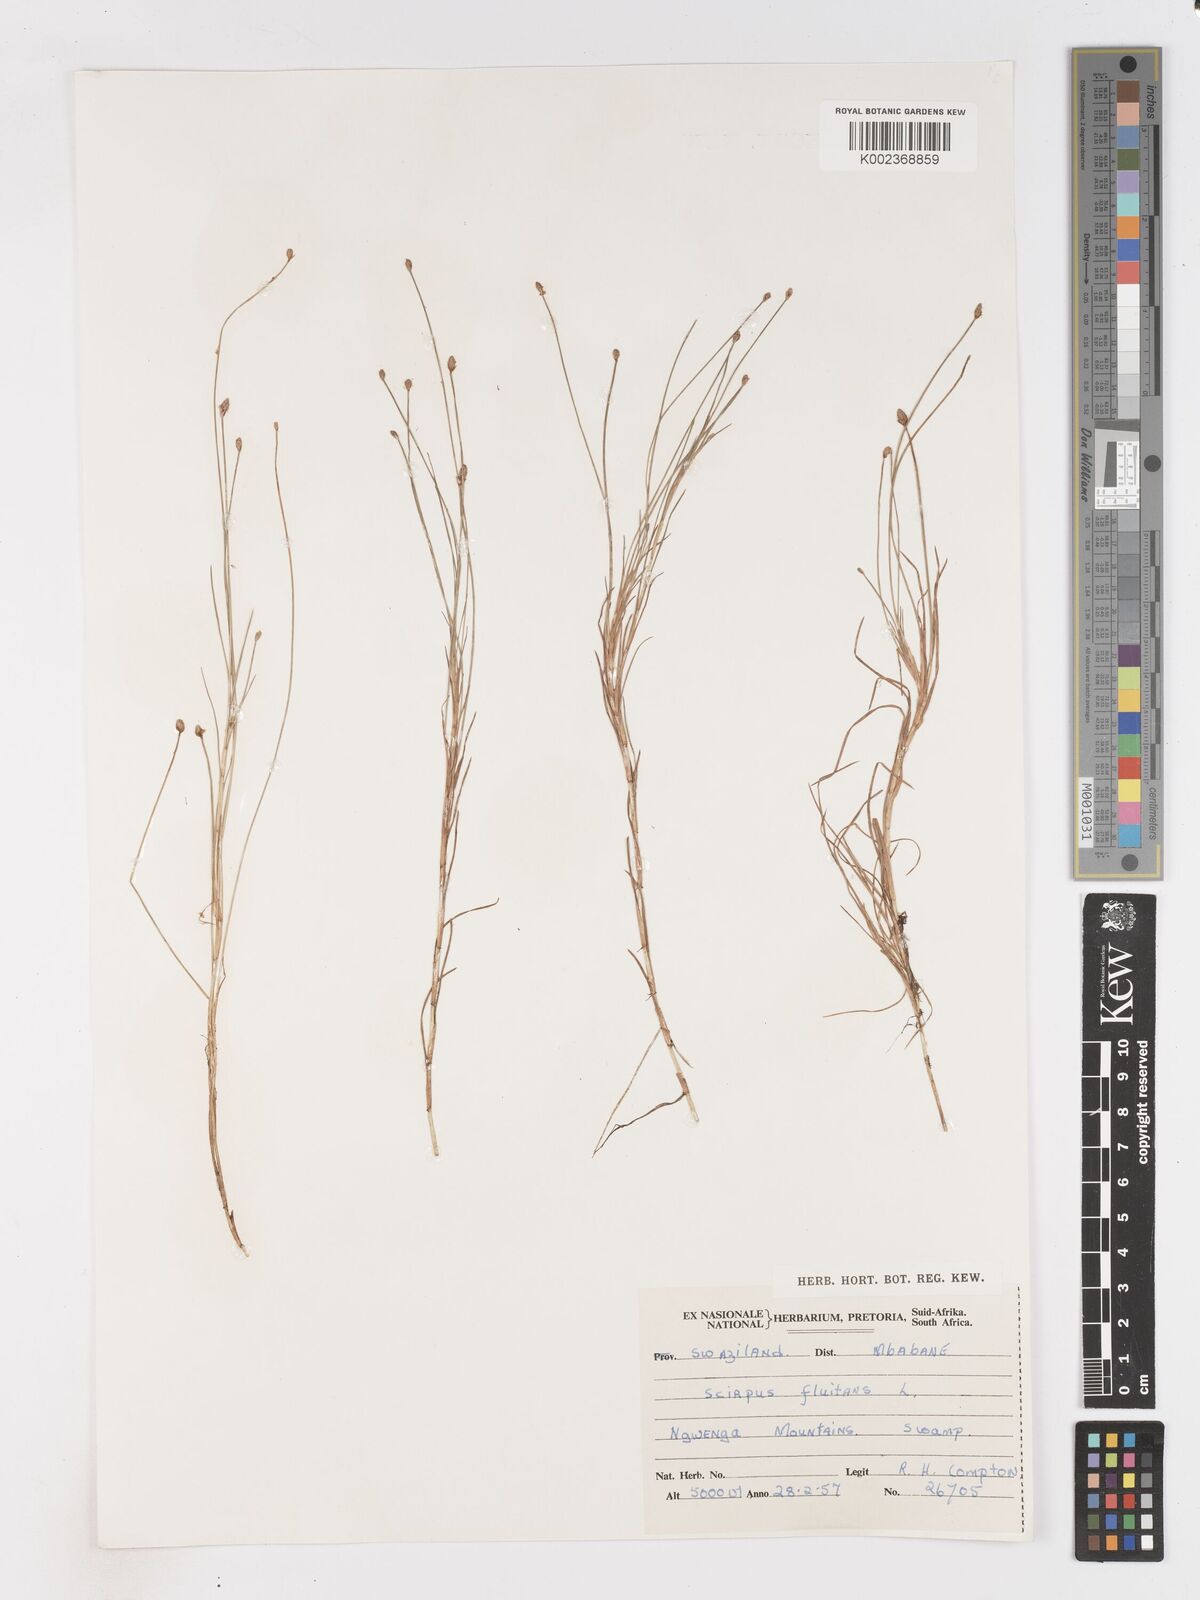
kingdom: Plantae
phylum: Tracheophyta
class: Liliopsida
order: Poales
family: Cyperaceae
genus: Isolepis
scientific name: Isolepis fluitans
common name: Floating club-rush
